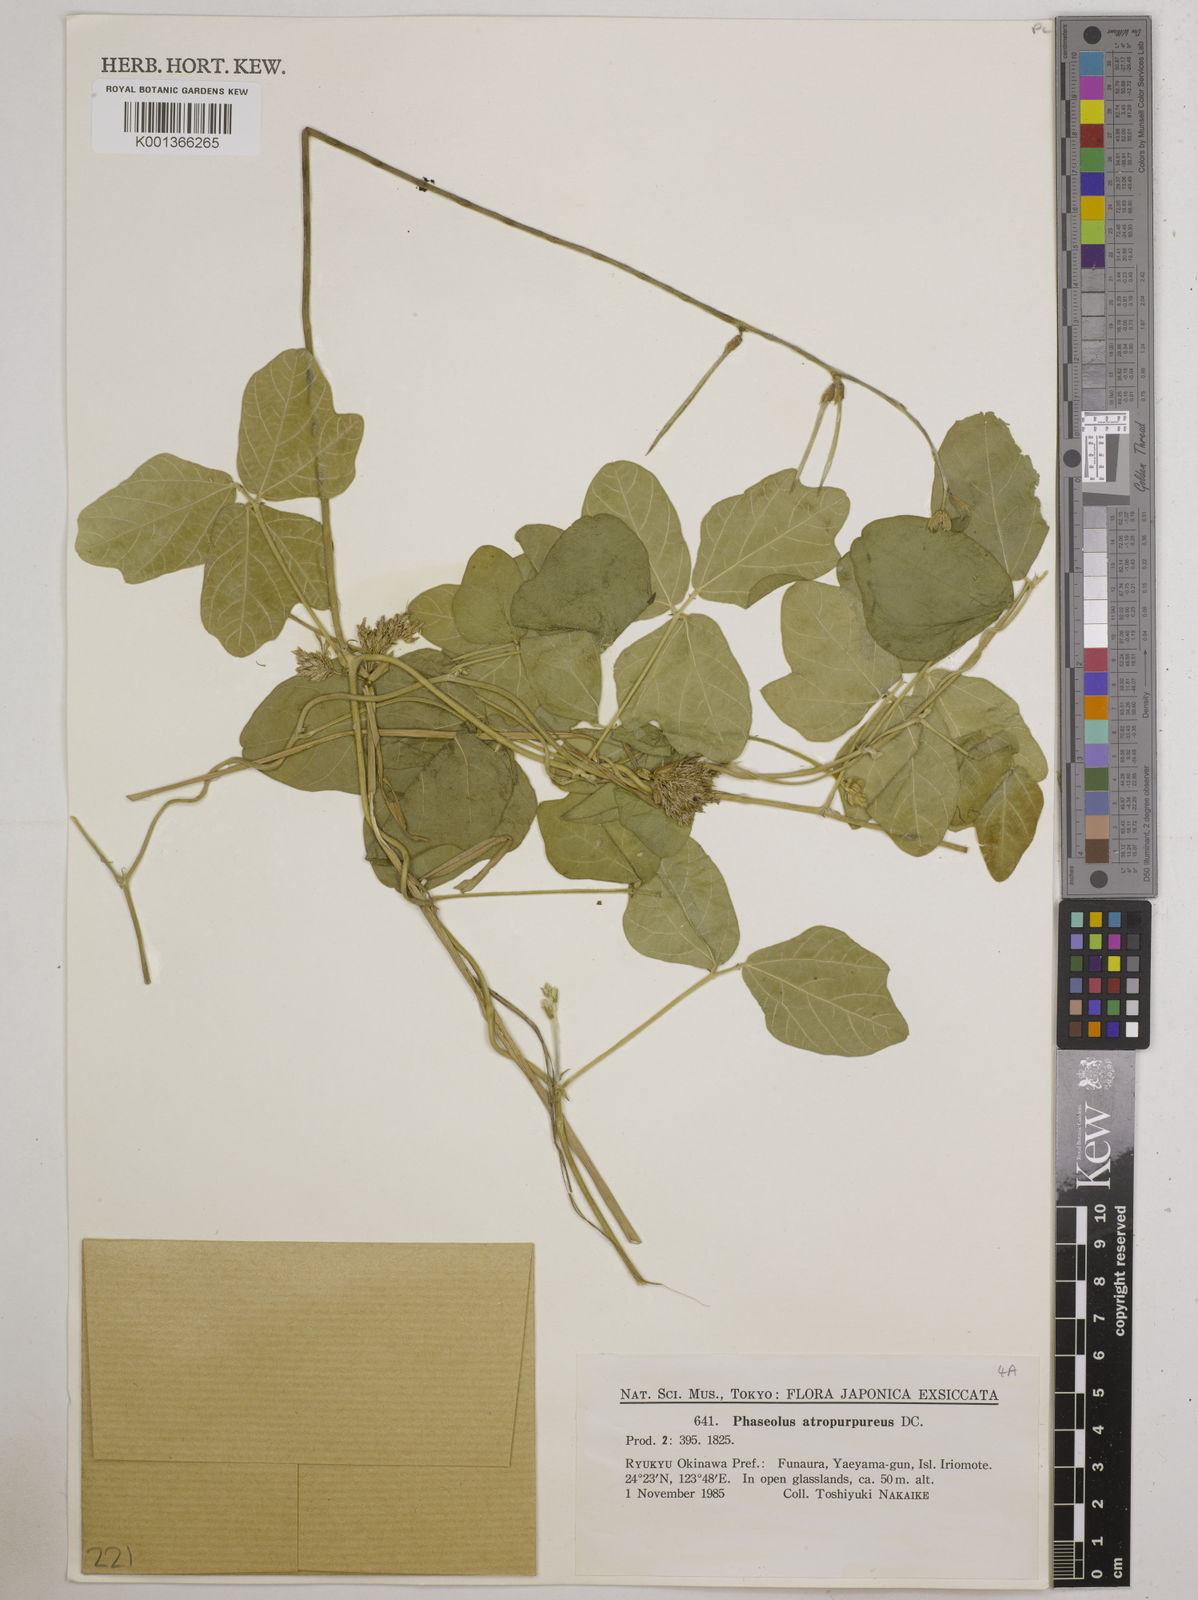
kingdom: Plantae
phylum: Tracheophyta
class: Magnoliopsida
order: Fabales
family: Fabaceae
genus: Macroptilium
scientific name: Macroptilium atropurpureum
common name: Purple bushbean
